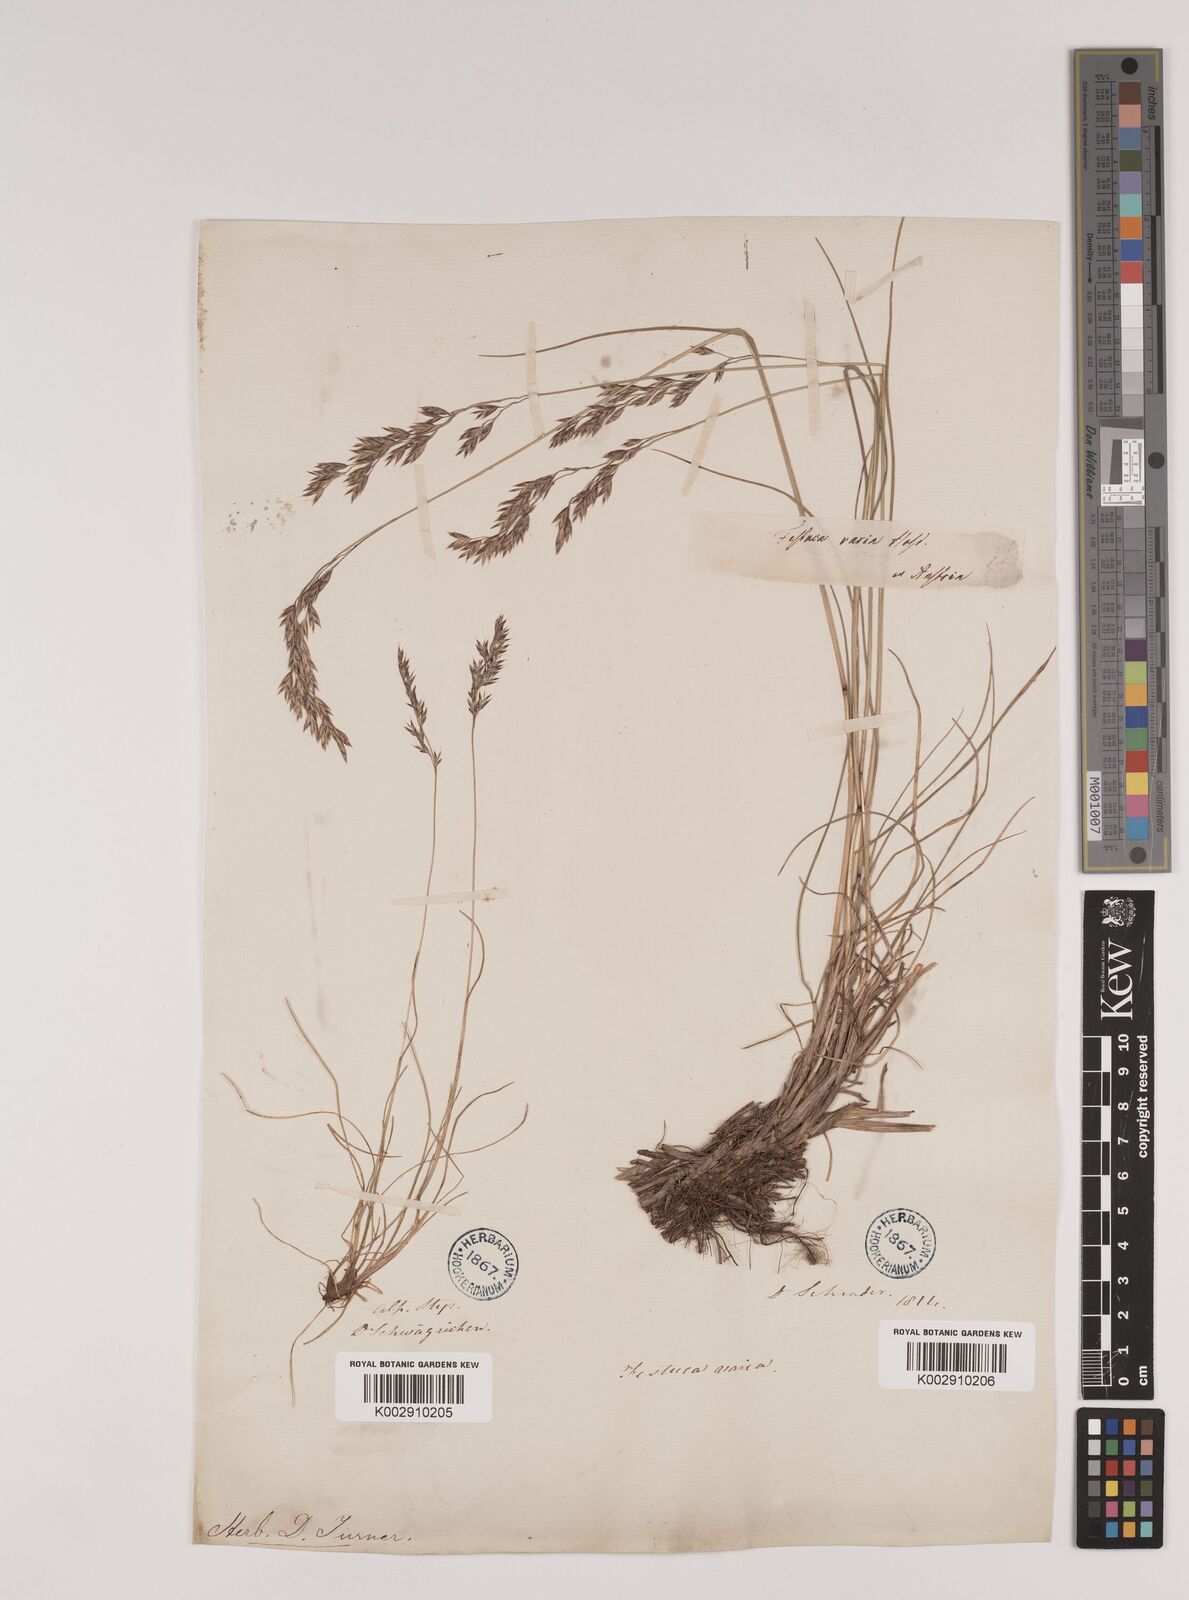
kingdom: Plantae
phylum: Tracheophyta
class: Liliopsida
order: Poales
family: Poaceae
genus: Festuca
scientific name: Festuca varia
